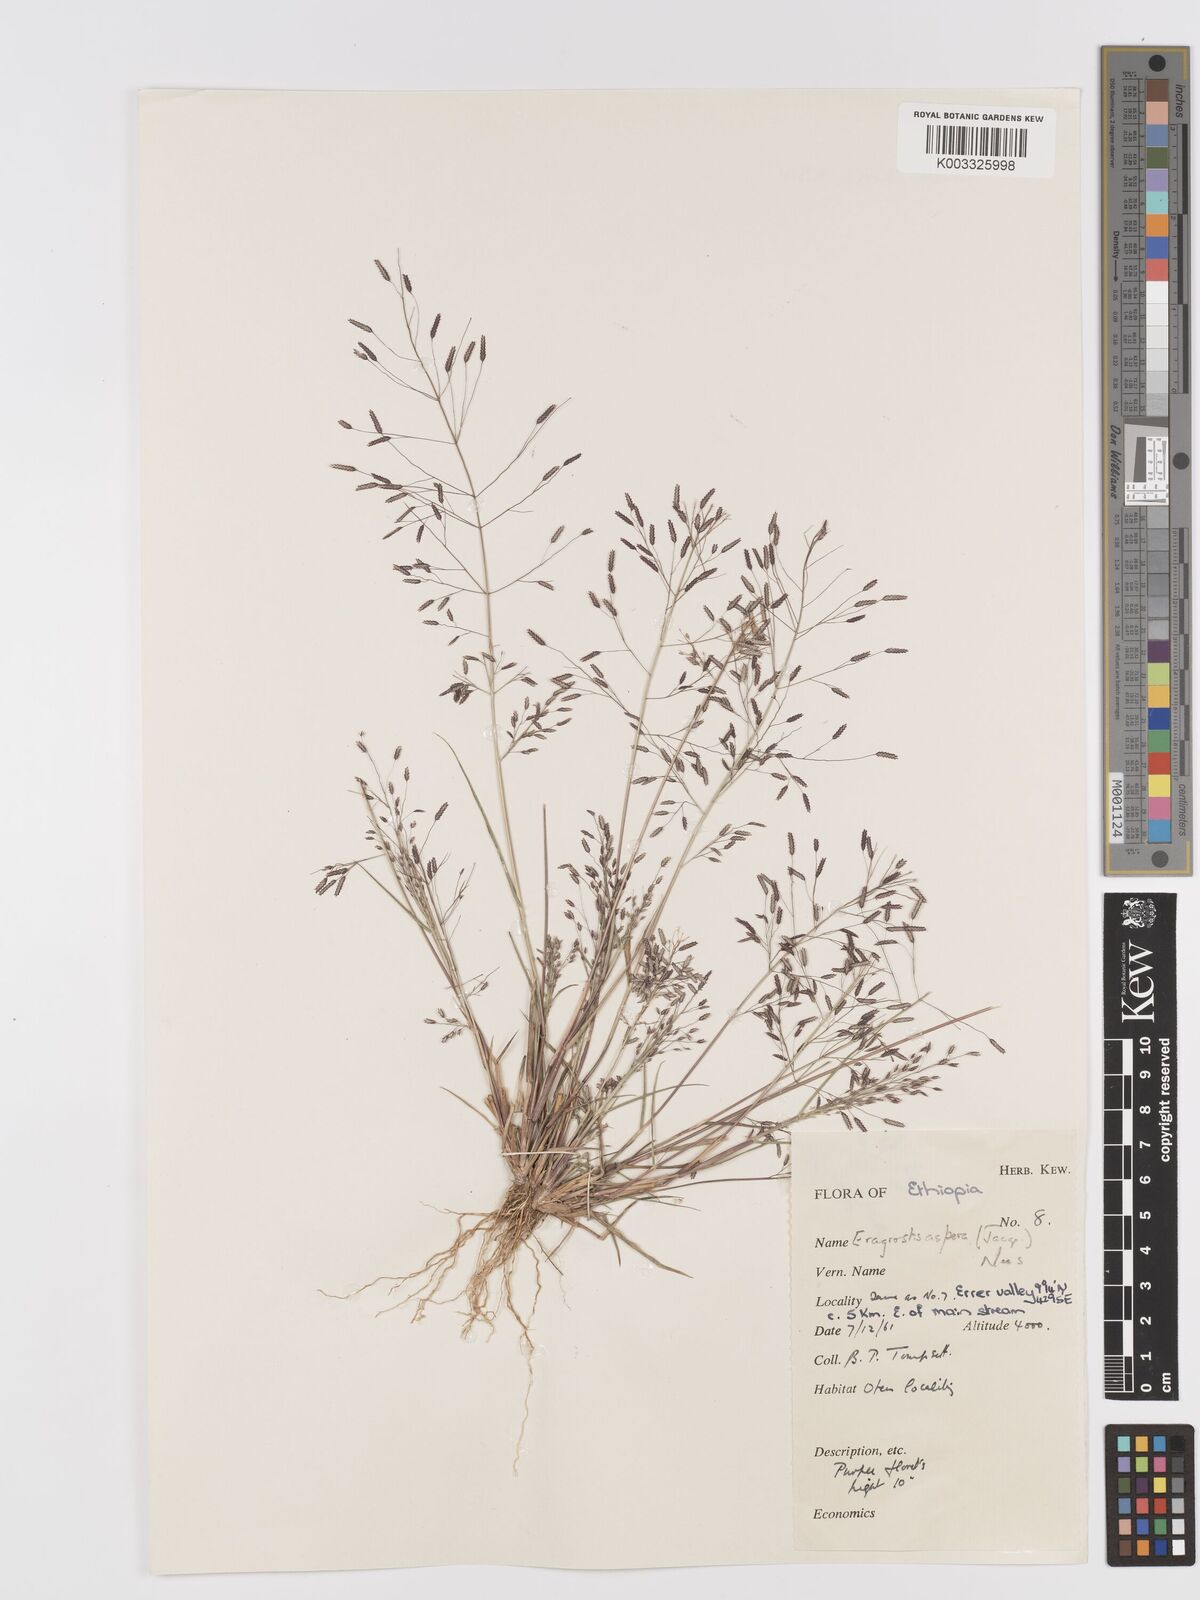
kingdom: Plantae
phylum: Tracheophyta
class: Liliopsida
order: Poales
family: Poaceae
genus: Eragrostis
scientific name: Eragrostis aspera
